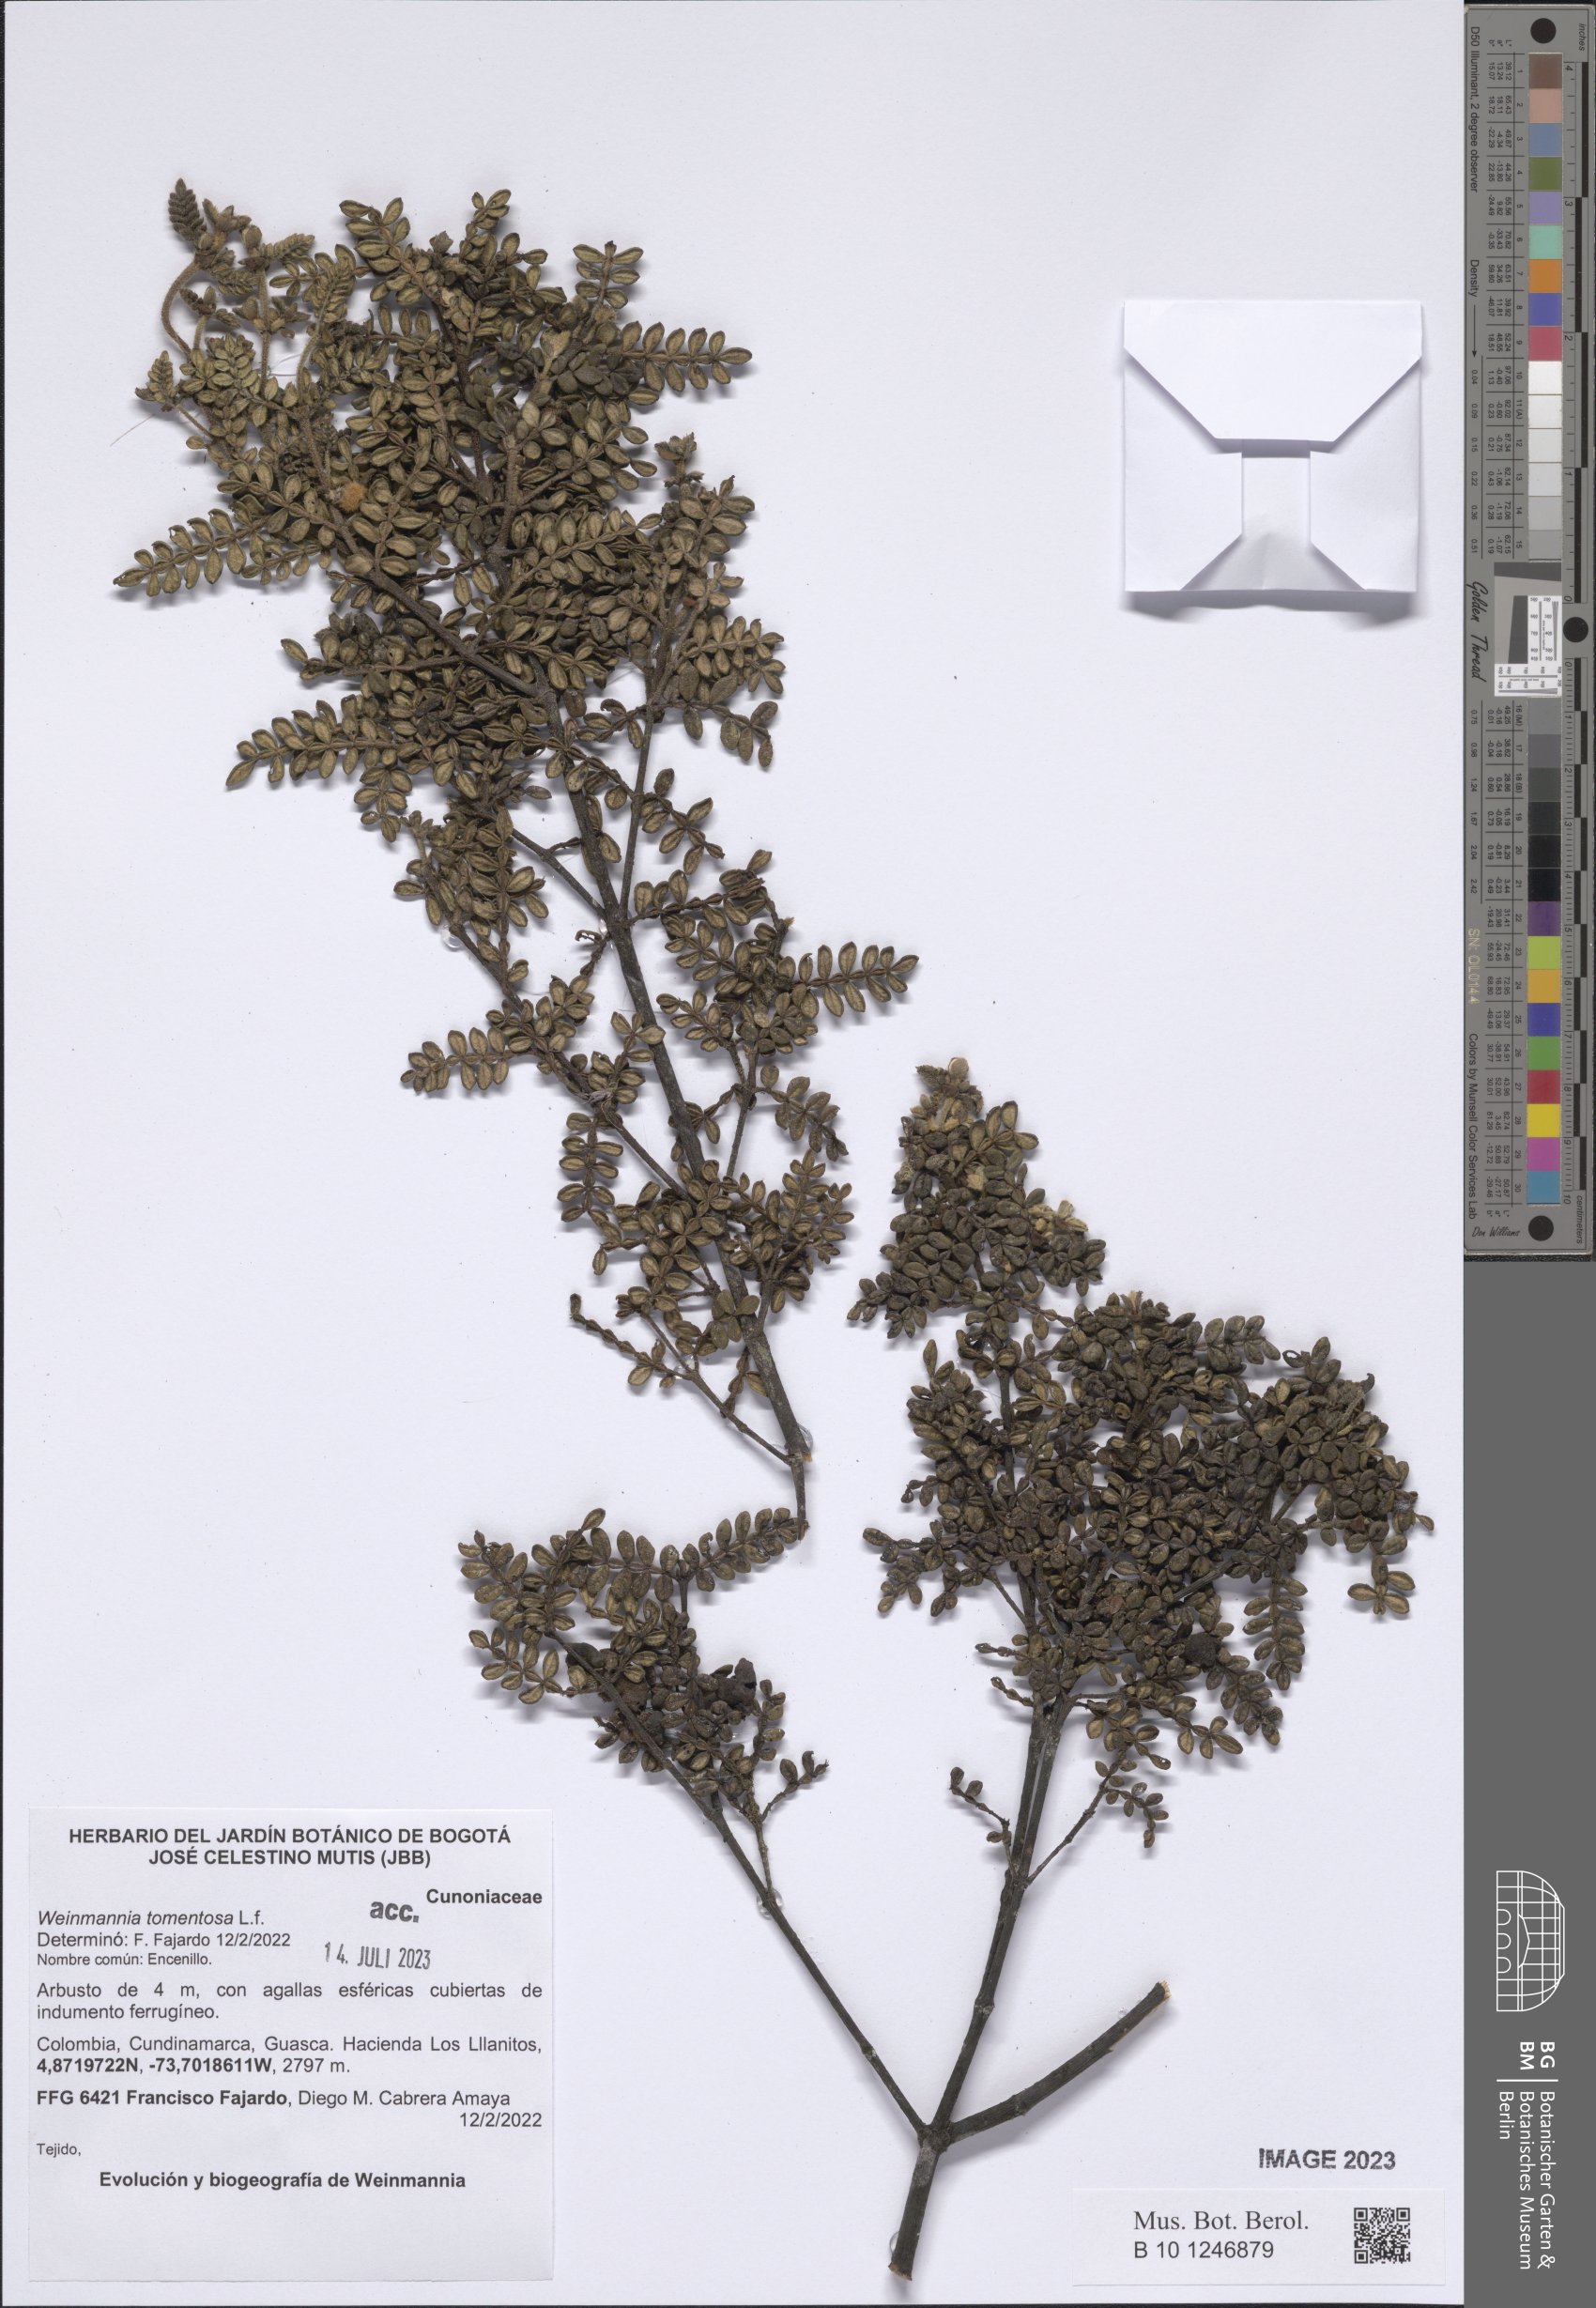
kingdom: Plantae
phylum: Tracheophyta
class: Magnoliopsida
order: Oxalidales
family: Cunoniaceae
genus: Weinmannia
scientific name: Weinmannia tomentosa
